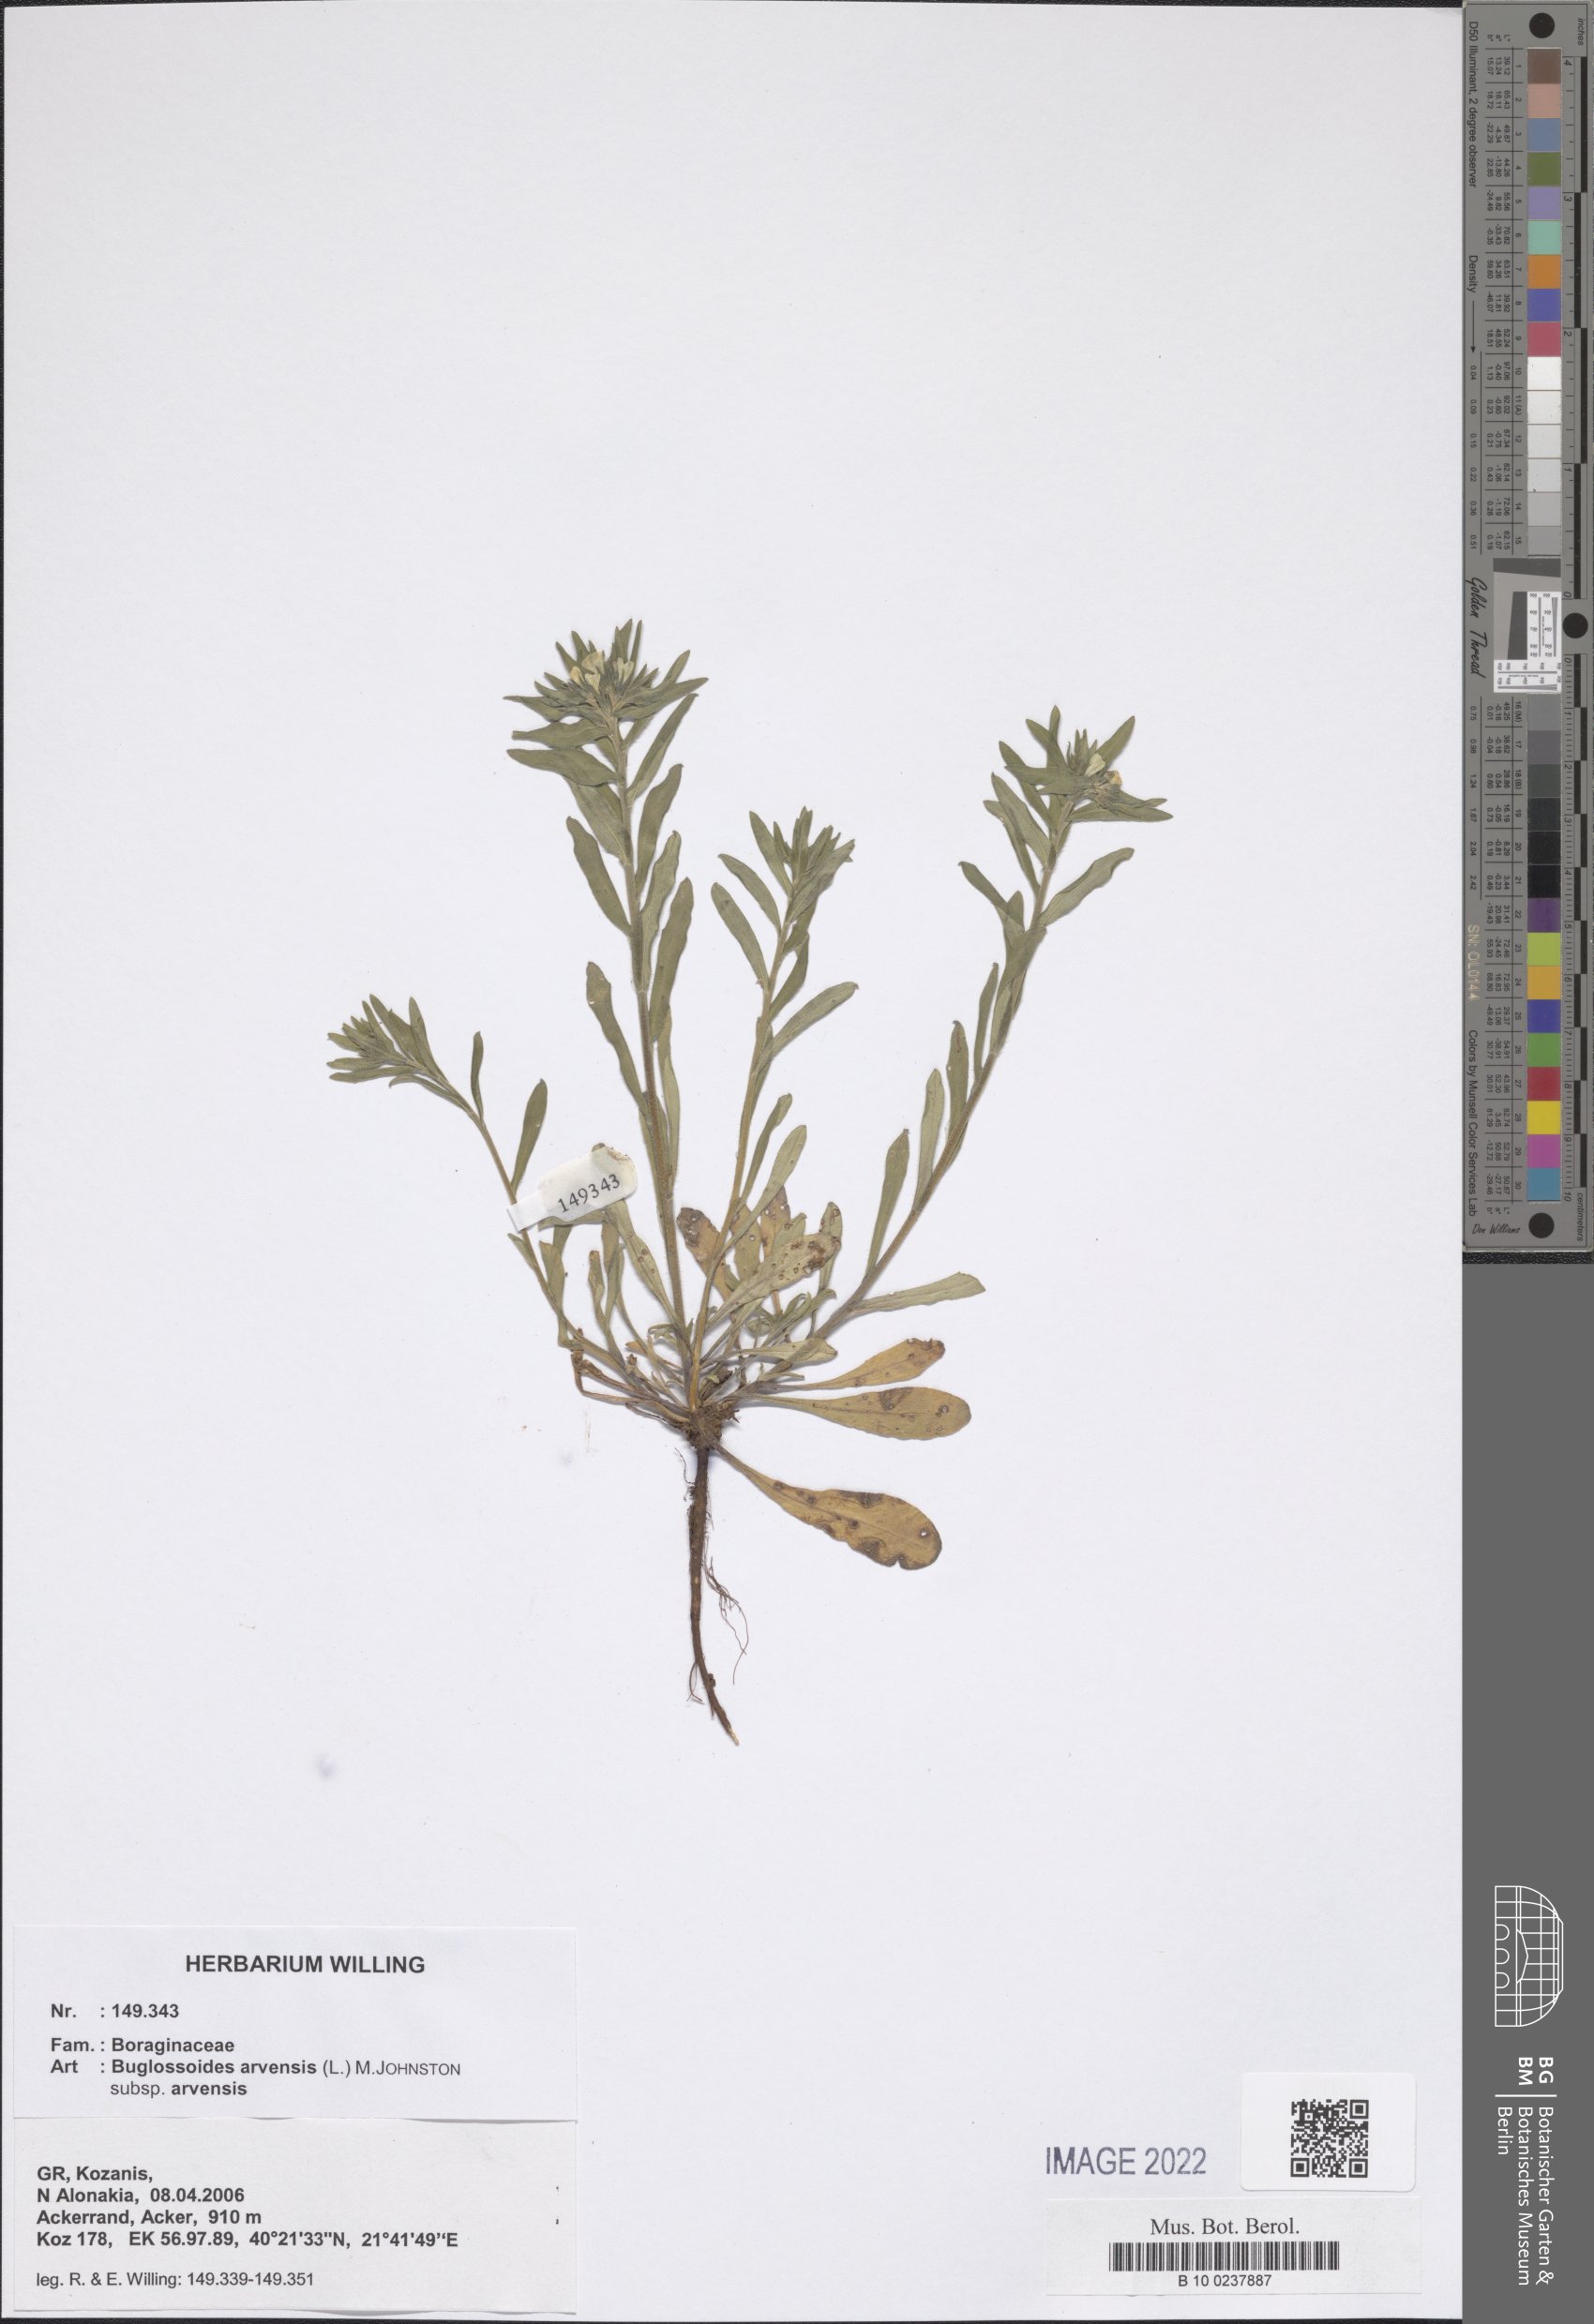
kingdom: Plantae
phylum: Tracheophyta
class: Magnoliopsida
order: Boraginales
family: Boraginaceae
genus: Buglossoides
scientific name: Buglossoides arvensis
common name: Corn gromwell
